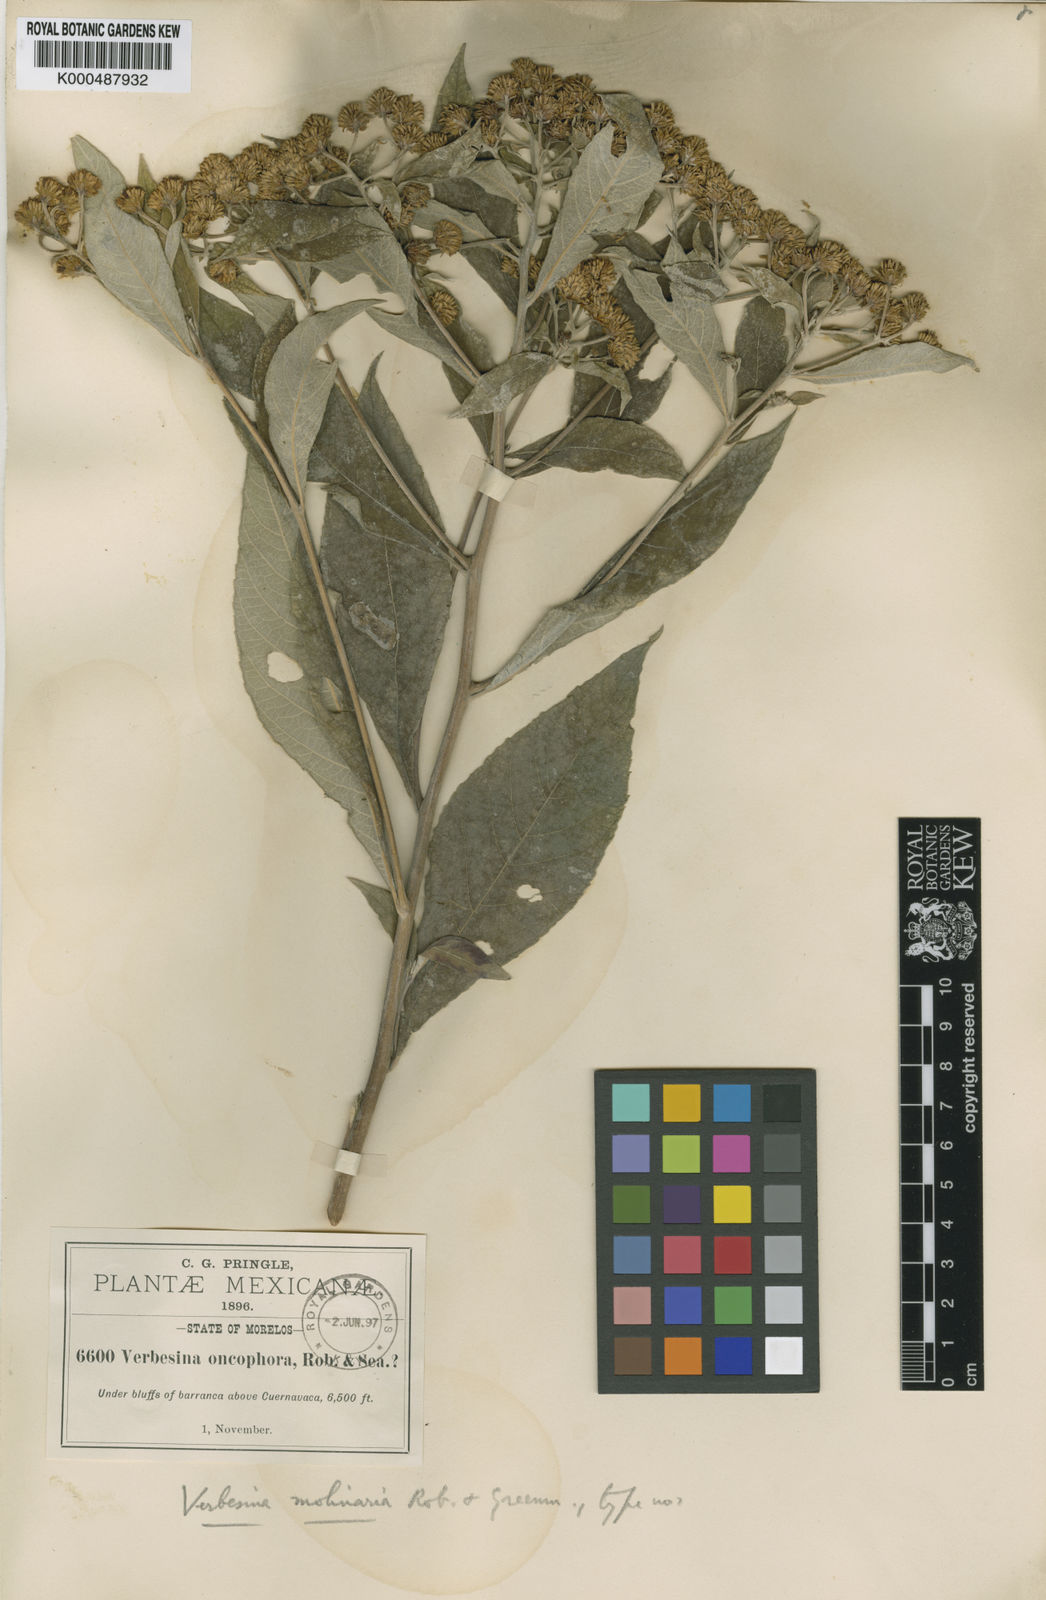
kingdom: Plantae
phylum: Tracheophyta
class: Magnoliopsida
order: Asterales
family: Asteraceae
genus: Verbesina
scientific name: Verbesina
